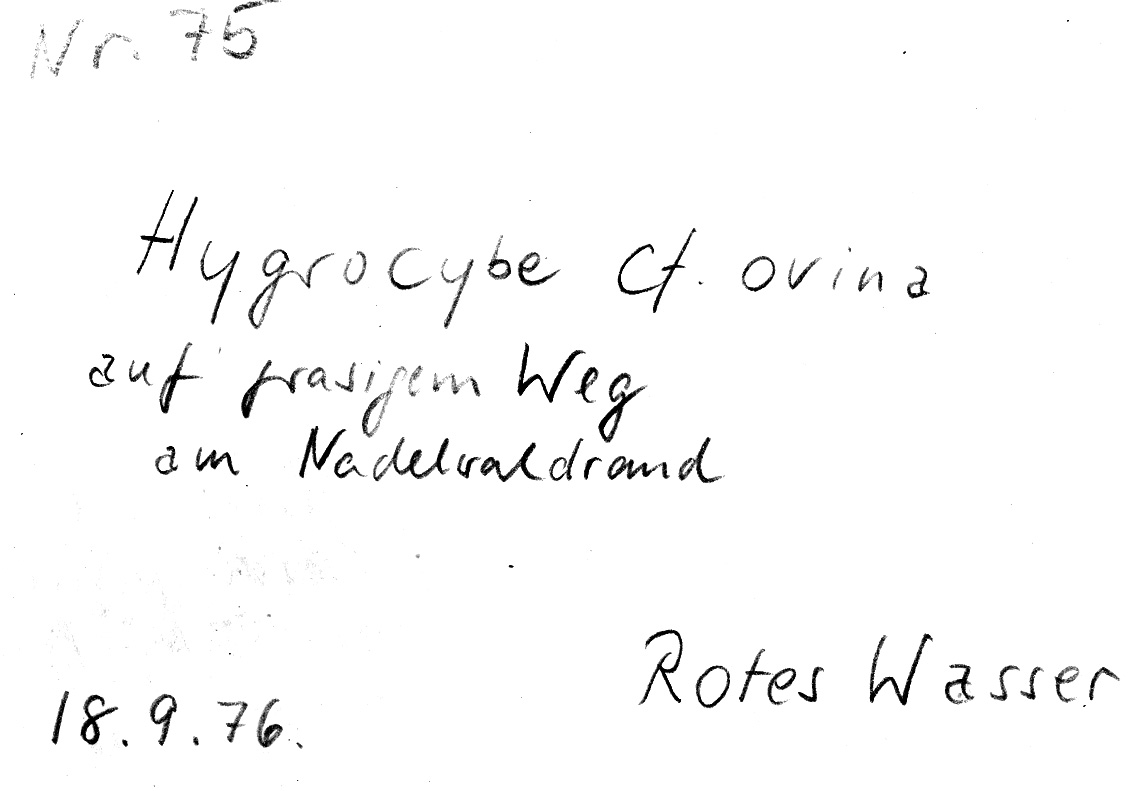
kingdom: Fungi
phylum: Basidiomycota
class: Agaricomycetes
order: Agaricales
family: Hygrophoraceae
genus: Neohygrocybe
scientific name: Neohygrocybe ovina
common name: Blushing waxcap
